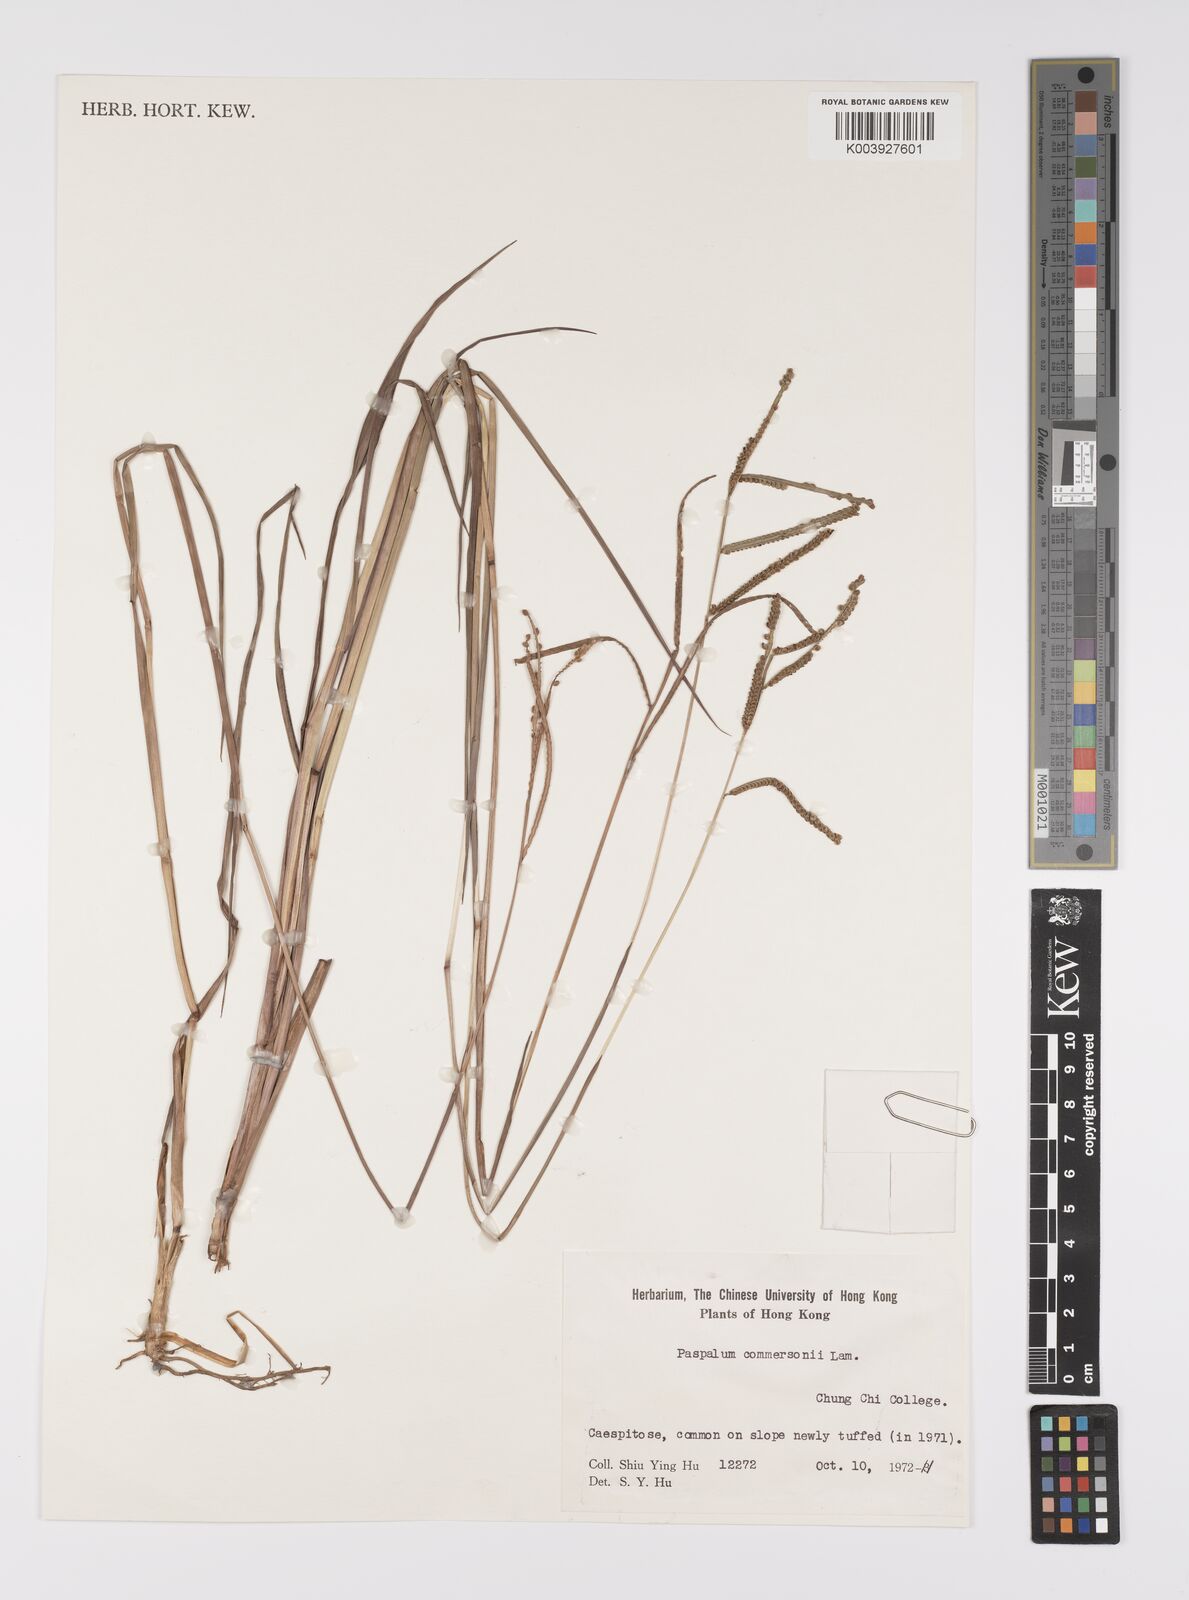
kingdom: Plantae
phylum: Tracheophyta
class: Liliopsida
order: Poales
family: Poaceae
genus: Paspalum
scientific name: Paspalum scrobiculatum
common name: Kodo millet
